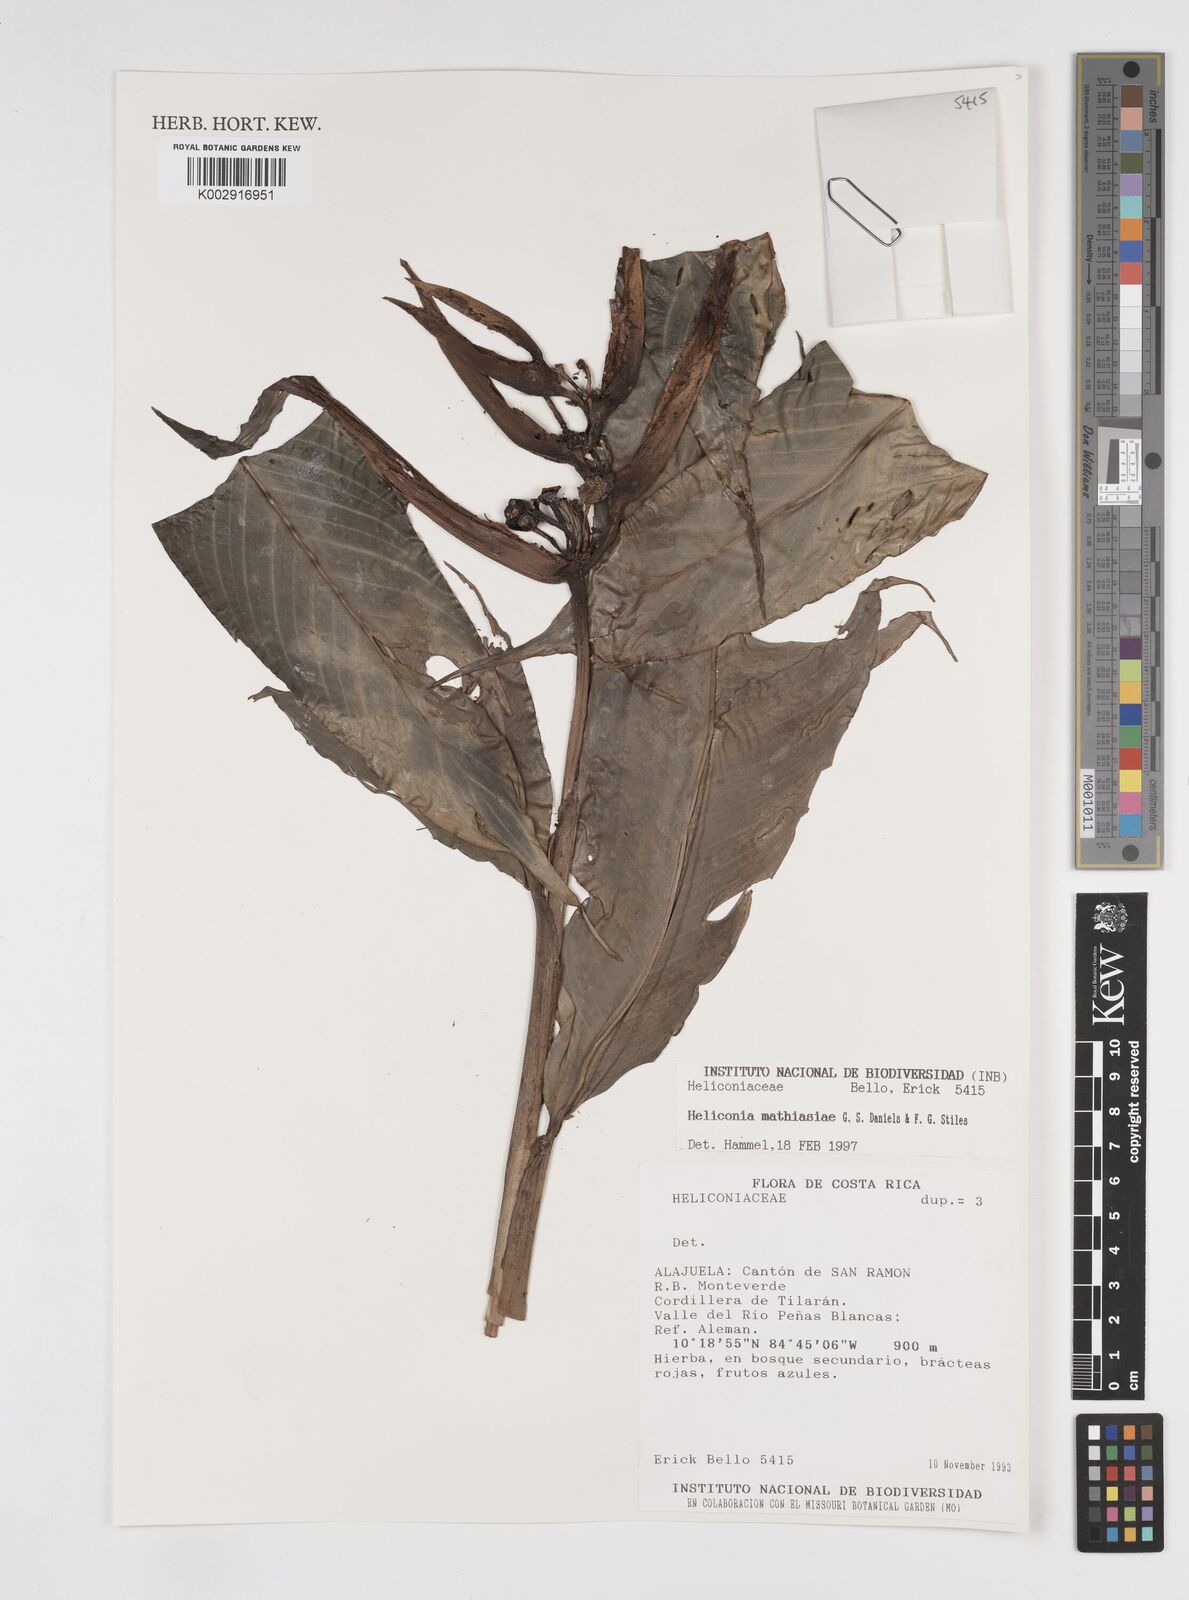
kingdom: Plantae
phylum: Tracheophyta
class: Liliopsida
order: Zingiberales
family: Heliconiaceae
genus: Heliconia
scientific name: Heliconia mathiasiae
